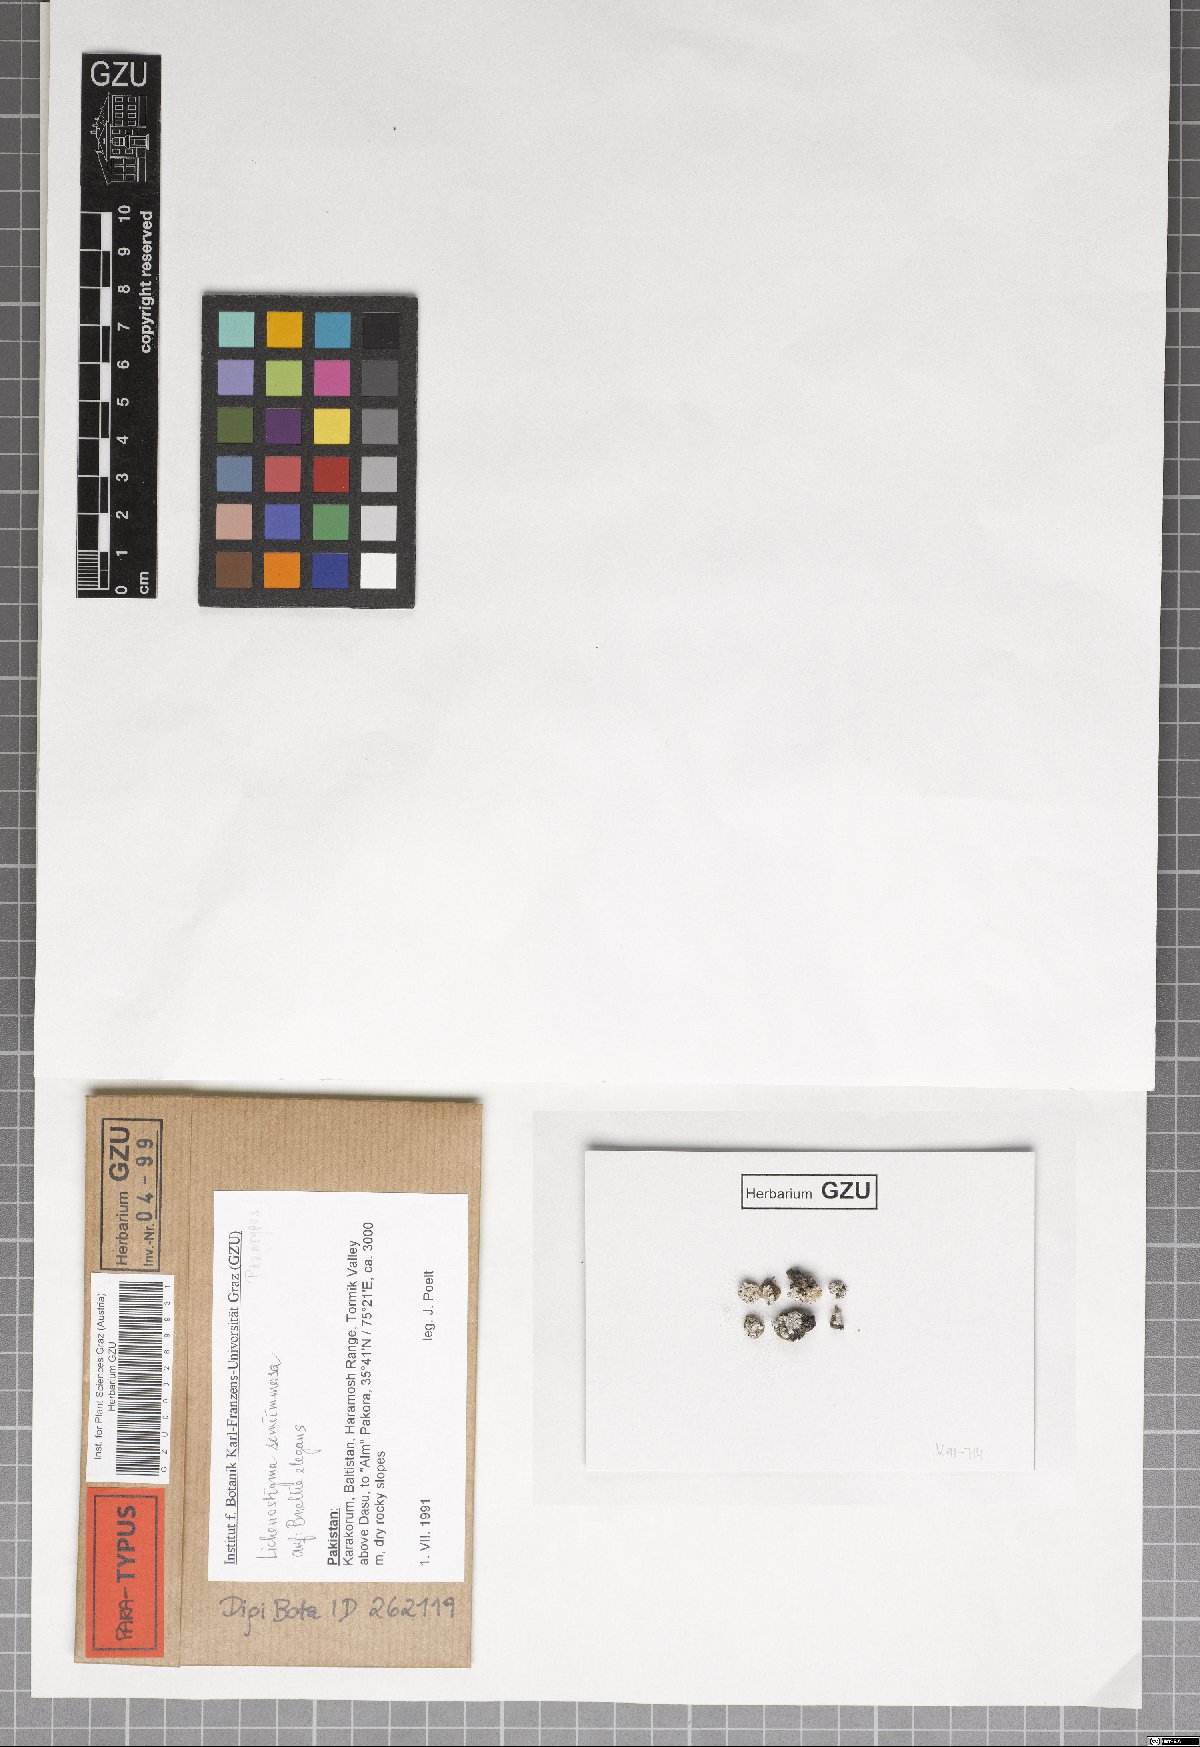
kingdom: Fungi
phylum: Ascomycota
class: Dothideomycetes
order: Lichenotheliales
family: Lichenotheliaceae
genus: Lichenostigma
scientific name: Lichenostigma semi-immersum
